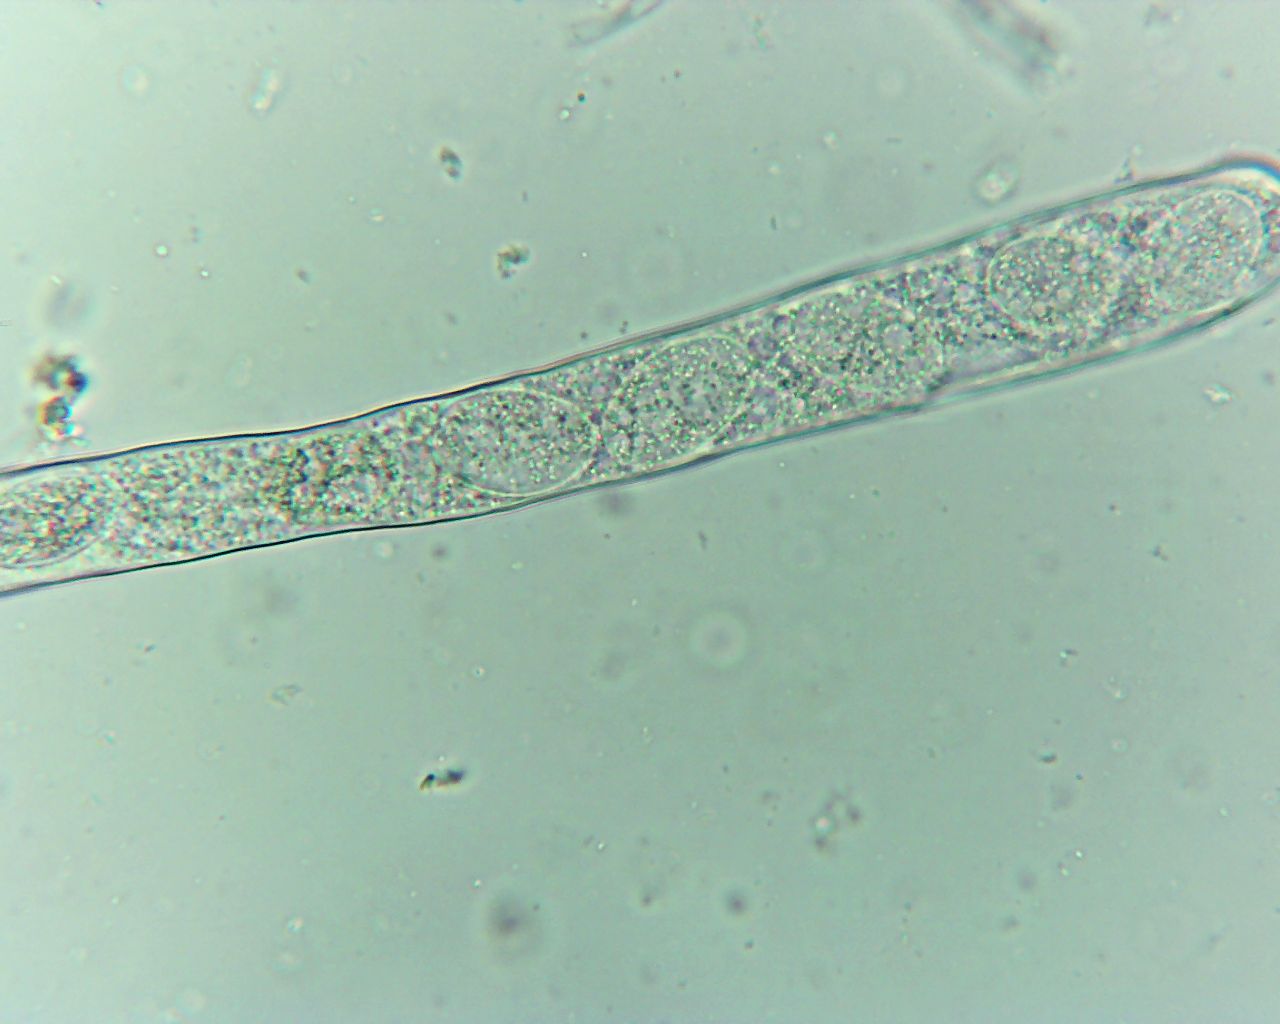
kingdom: Fungi
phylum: Ascomycota
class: Pezizomycetes
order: Pezizales
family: Discinaceae
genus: Hydnotrya
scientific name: Hydnotrya
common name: foldtrøffel
